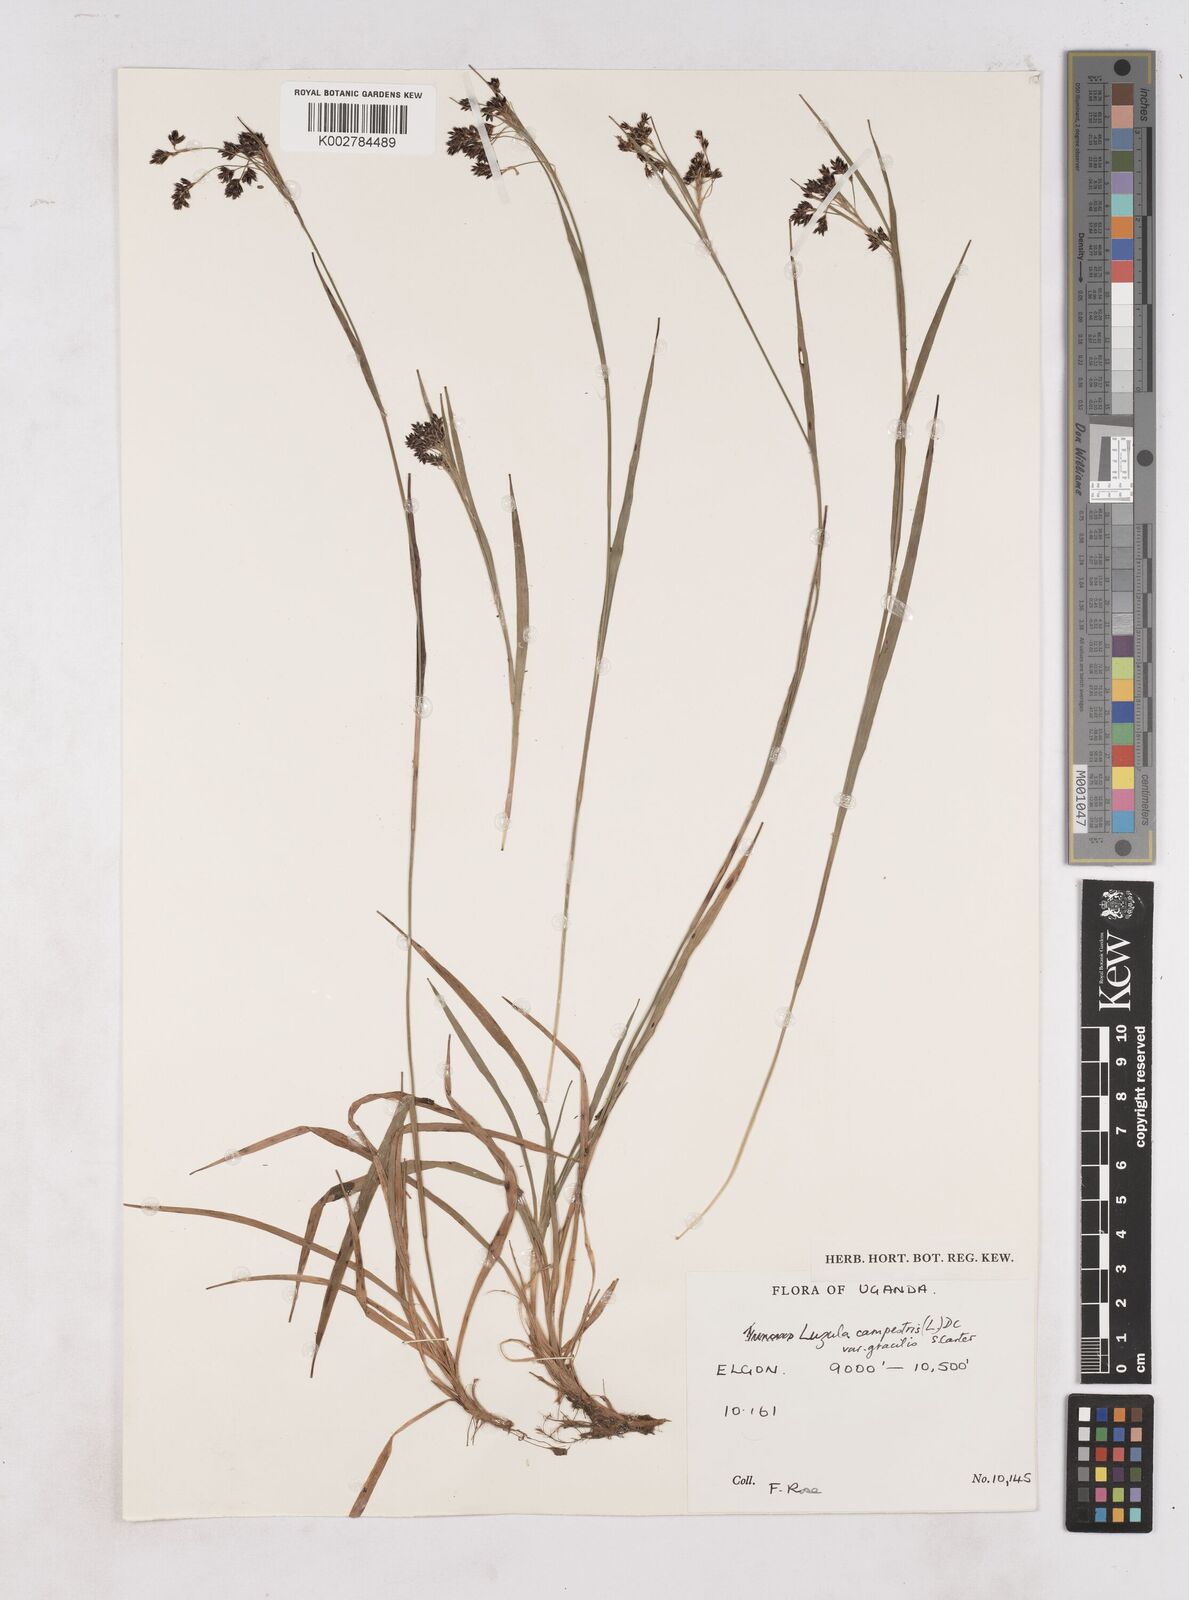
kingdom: Plantae
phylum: Tracheophyta
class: Liliopsida
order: Poales
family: Juncaceae
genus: Luzula
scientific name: Luzula campestris
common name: Field wood-rush
